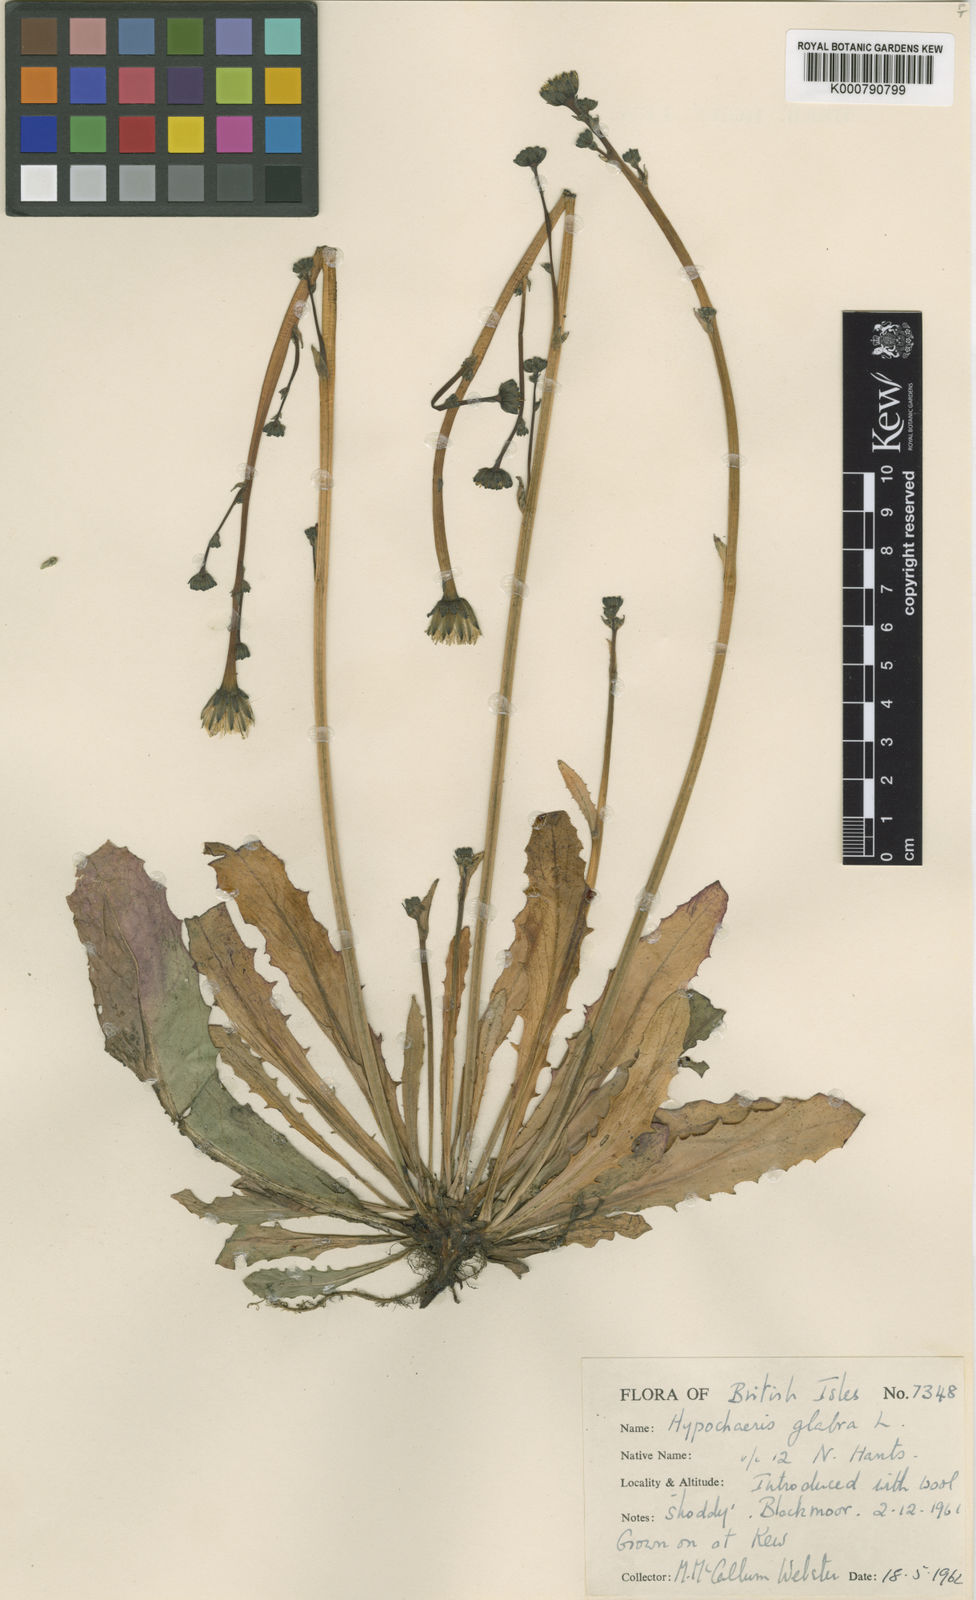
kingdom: Plantae
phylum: Tracheophyta
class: Magnoliopsida
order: Asterales
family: Asteraceae
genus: Hypochaeris
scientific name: Hypochaeris glabra
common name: Smooth catsear
